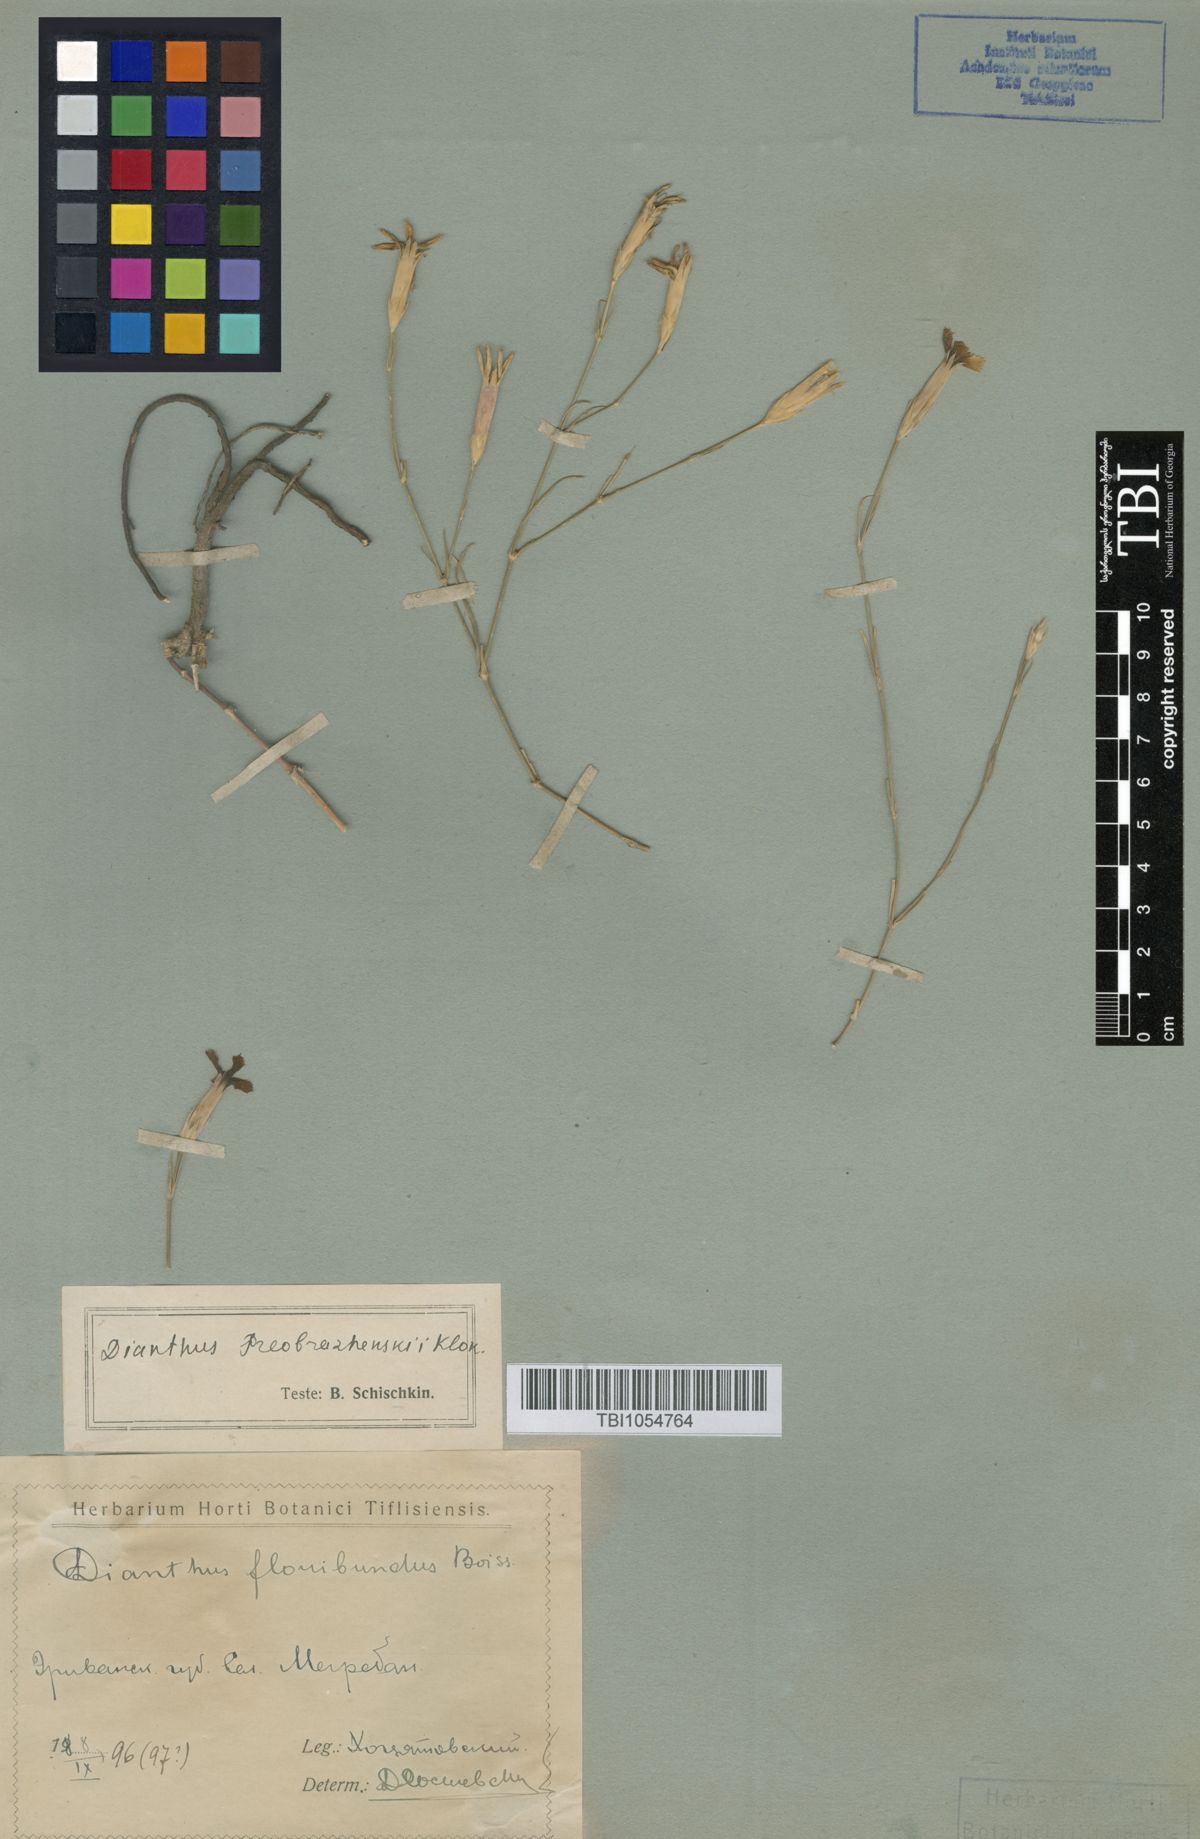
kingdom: Plantae
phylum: Tracheophyta
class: Magnoliopsida
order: Caryophyllales
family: Caryophyllaceae
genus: Dianthus
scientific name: Dianthus bicolor
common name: Bicolour pink
